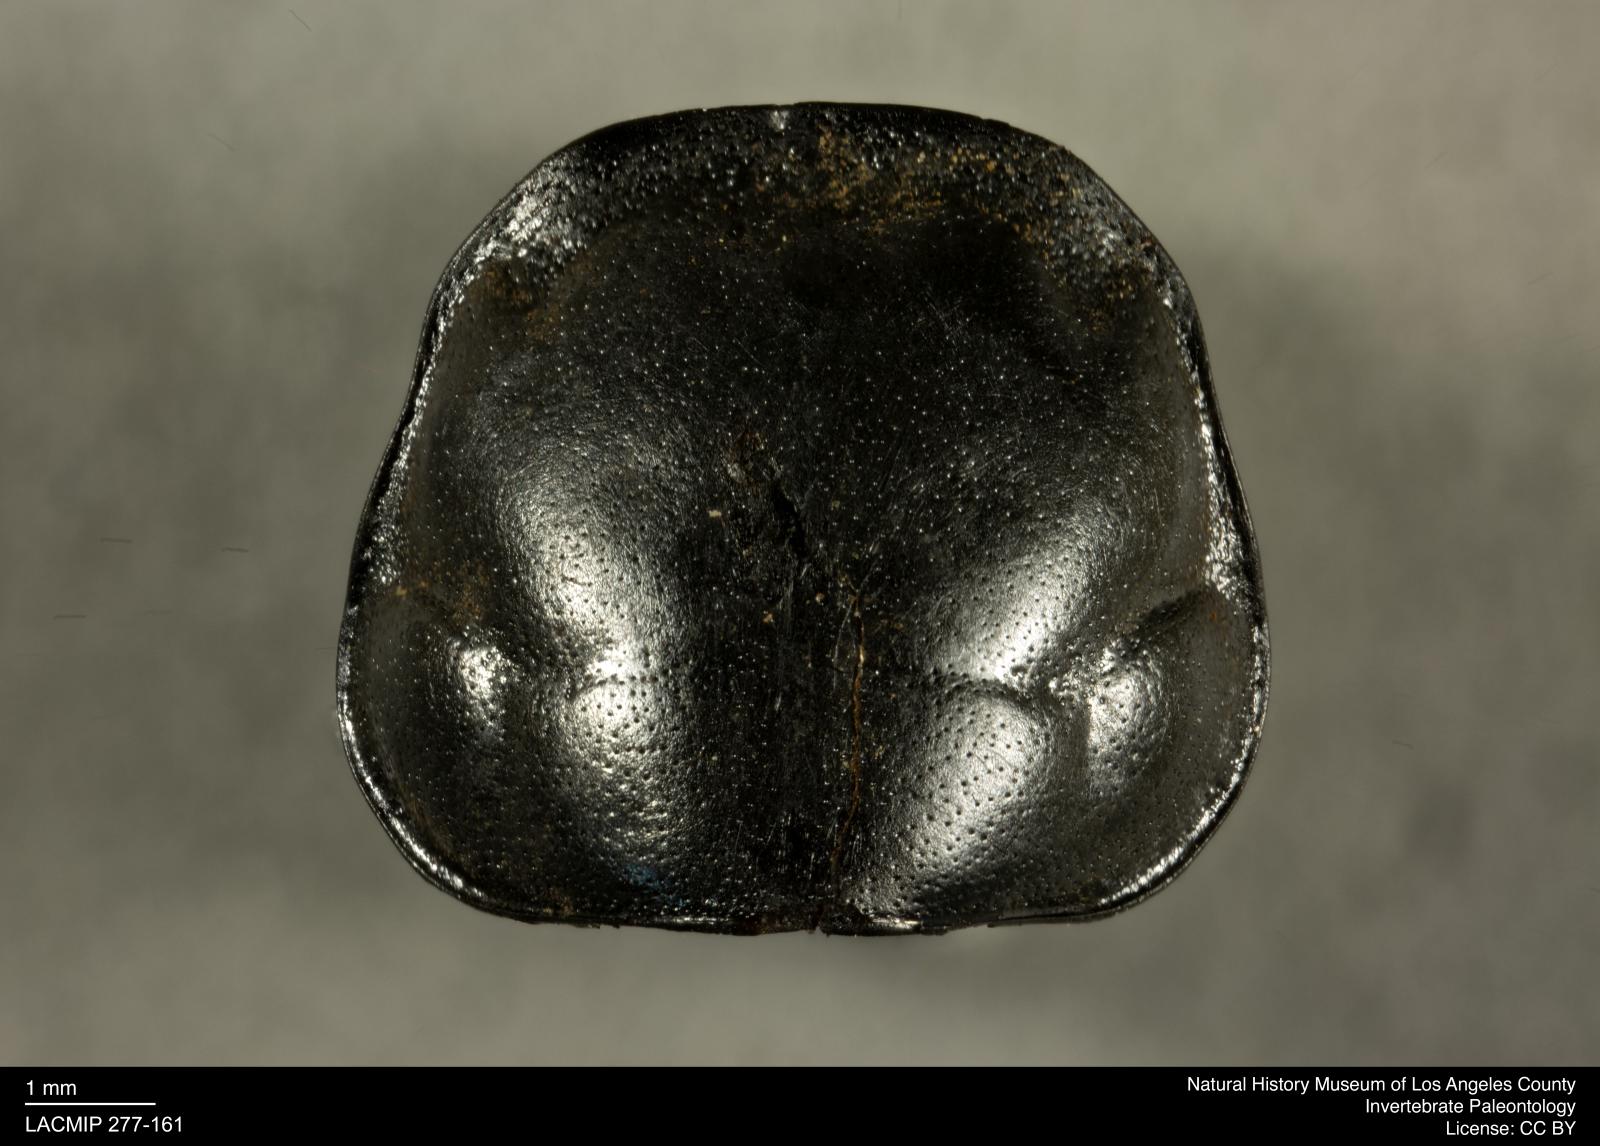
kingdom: Animalia
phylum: Arthropoda
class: Insecta
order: Coleoptera
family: Staphylinidae
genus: Nicrophorus
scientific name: Nicrophorus marginatus
